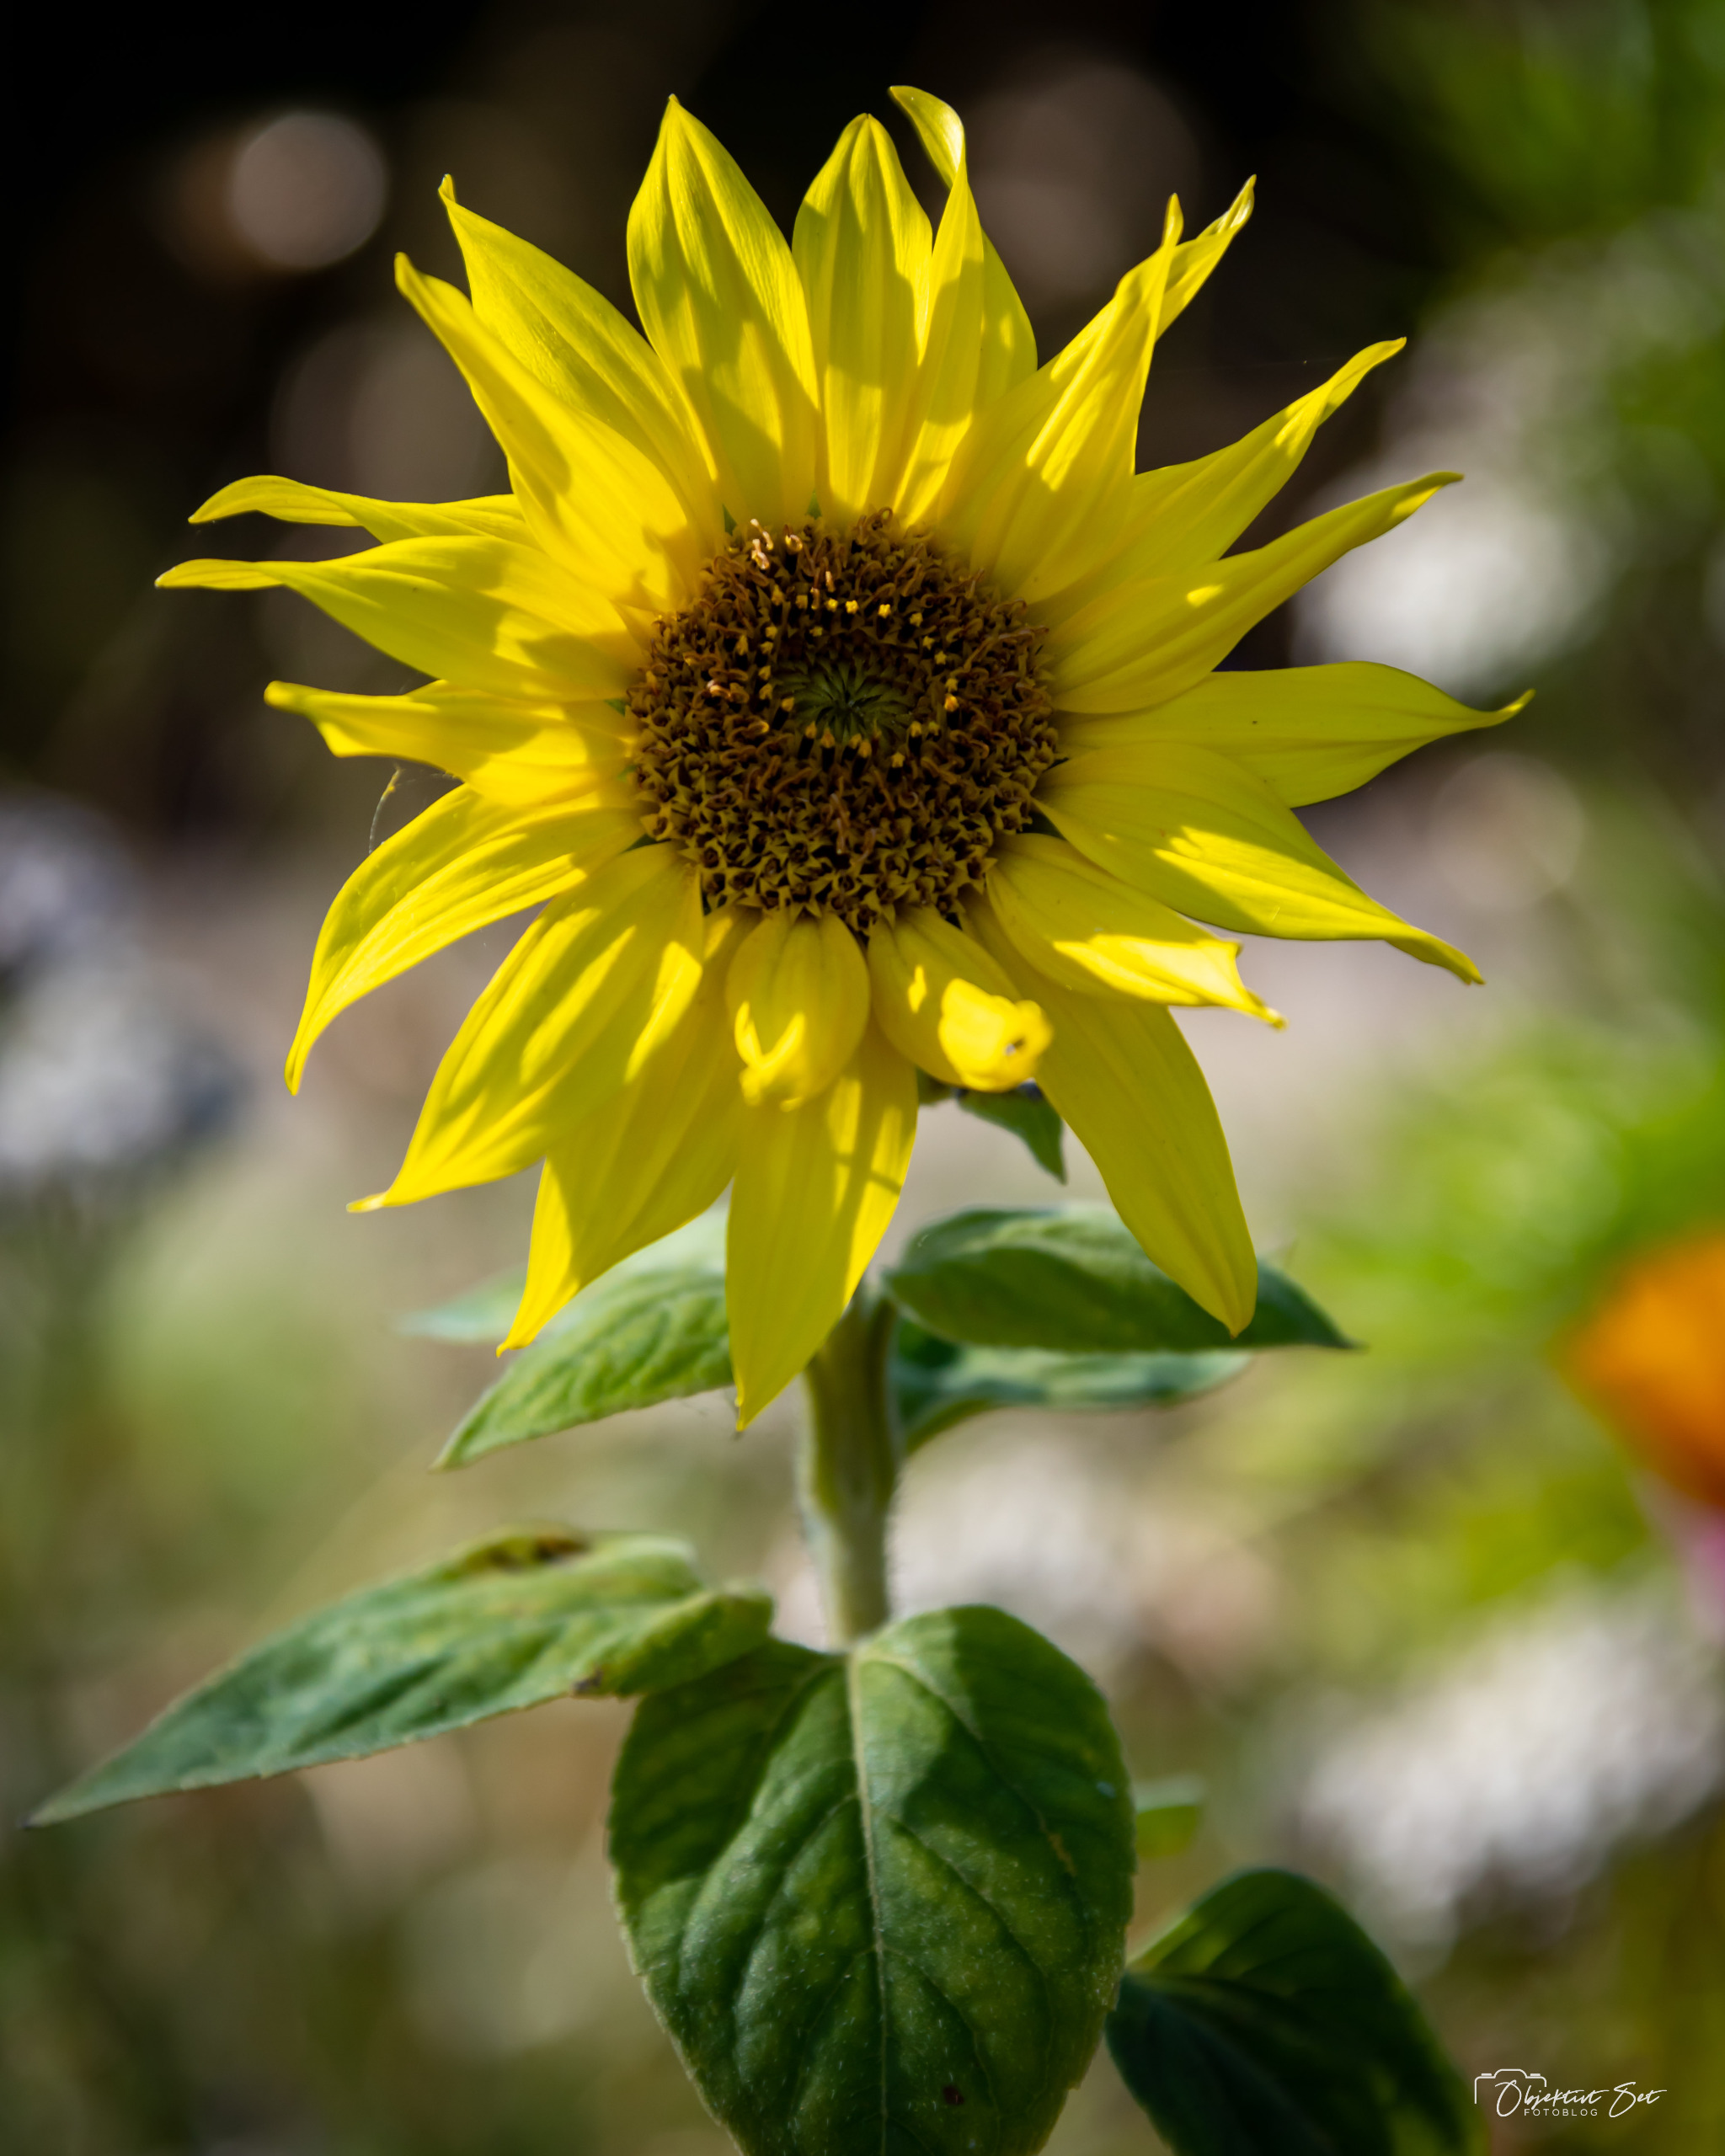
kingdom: Plantae
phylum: Tracheophyta
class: Magnoliopsida
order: Asterales
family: Asteraceae
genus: Helianthus
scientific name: Helianthus annuus
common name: Solsikke
